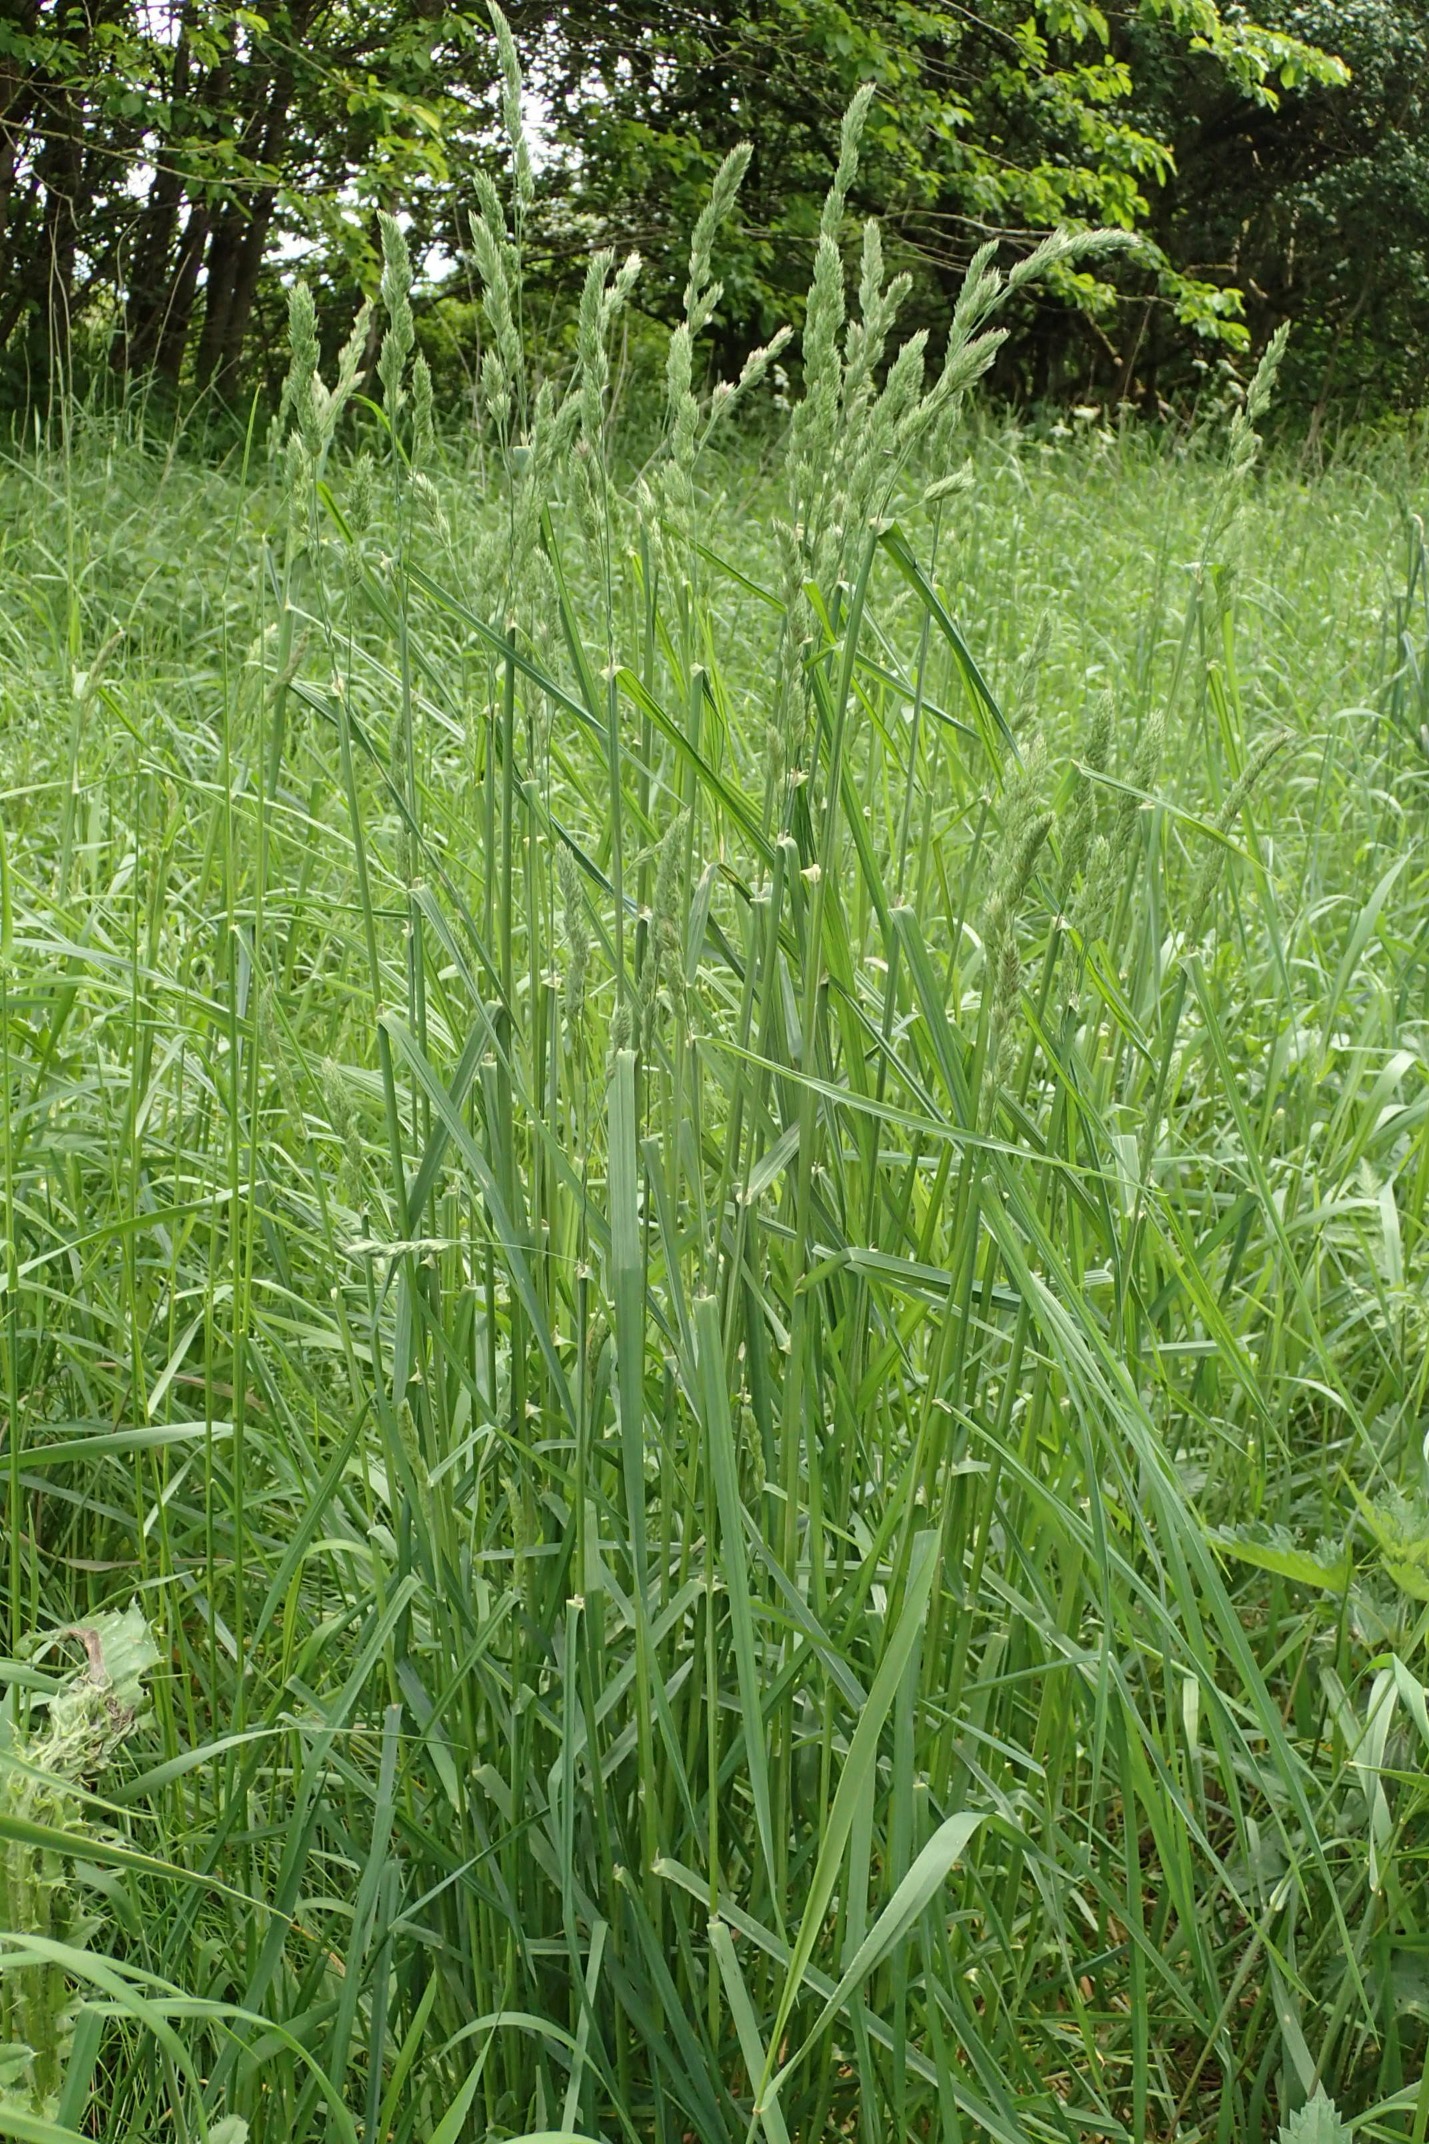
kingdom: Plantae
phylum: Tracheophyta
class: Liliopsida
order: Poales
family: Poaceae
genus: Dactylis
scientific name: Dactylis glomerata
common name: Almindelig hundegræs
